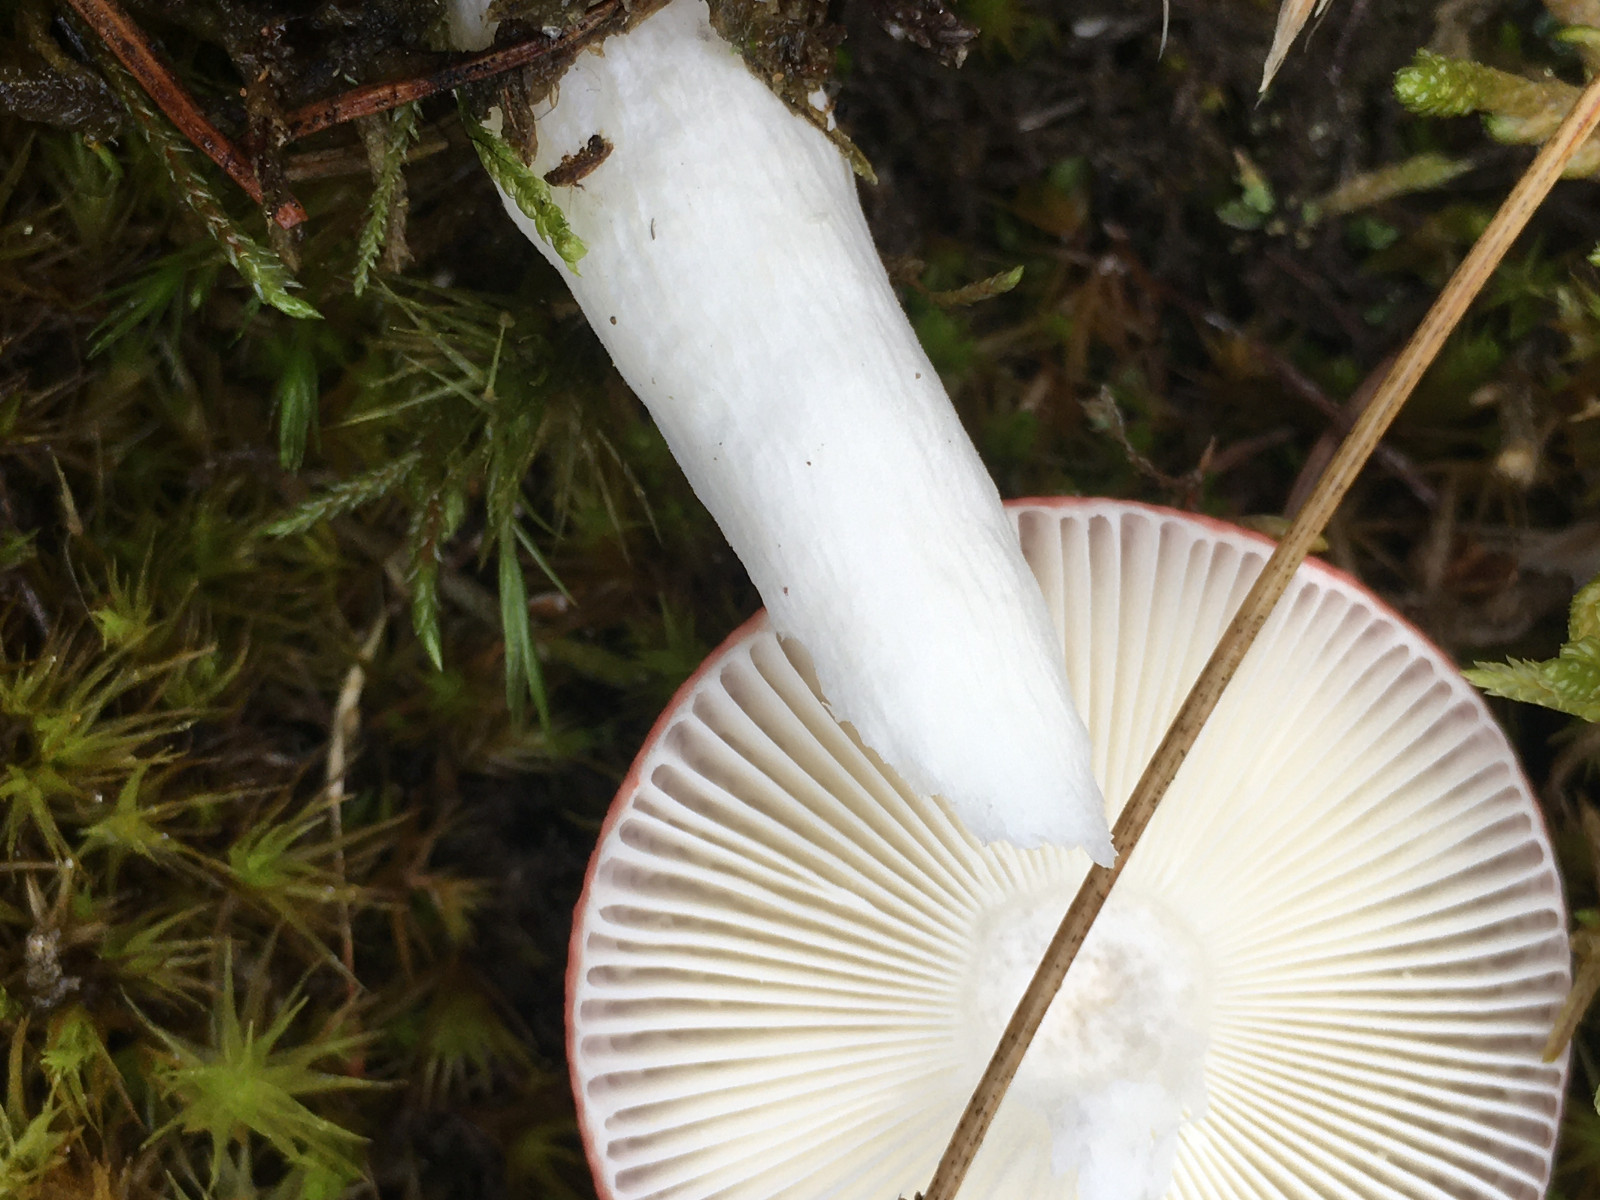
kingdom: Fungi
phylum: Basidiomycota
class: Agaricomycetes
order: Russulales
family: Russulaceae
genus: Russula
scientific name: Russula emetica
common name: stor gift-skørhat
